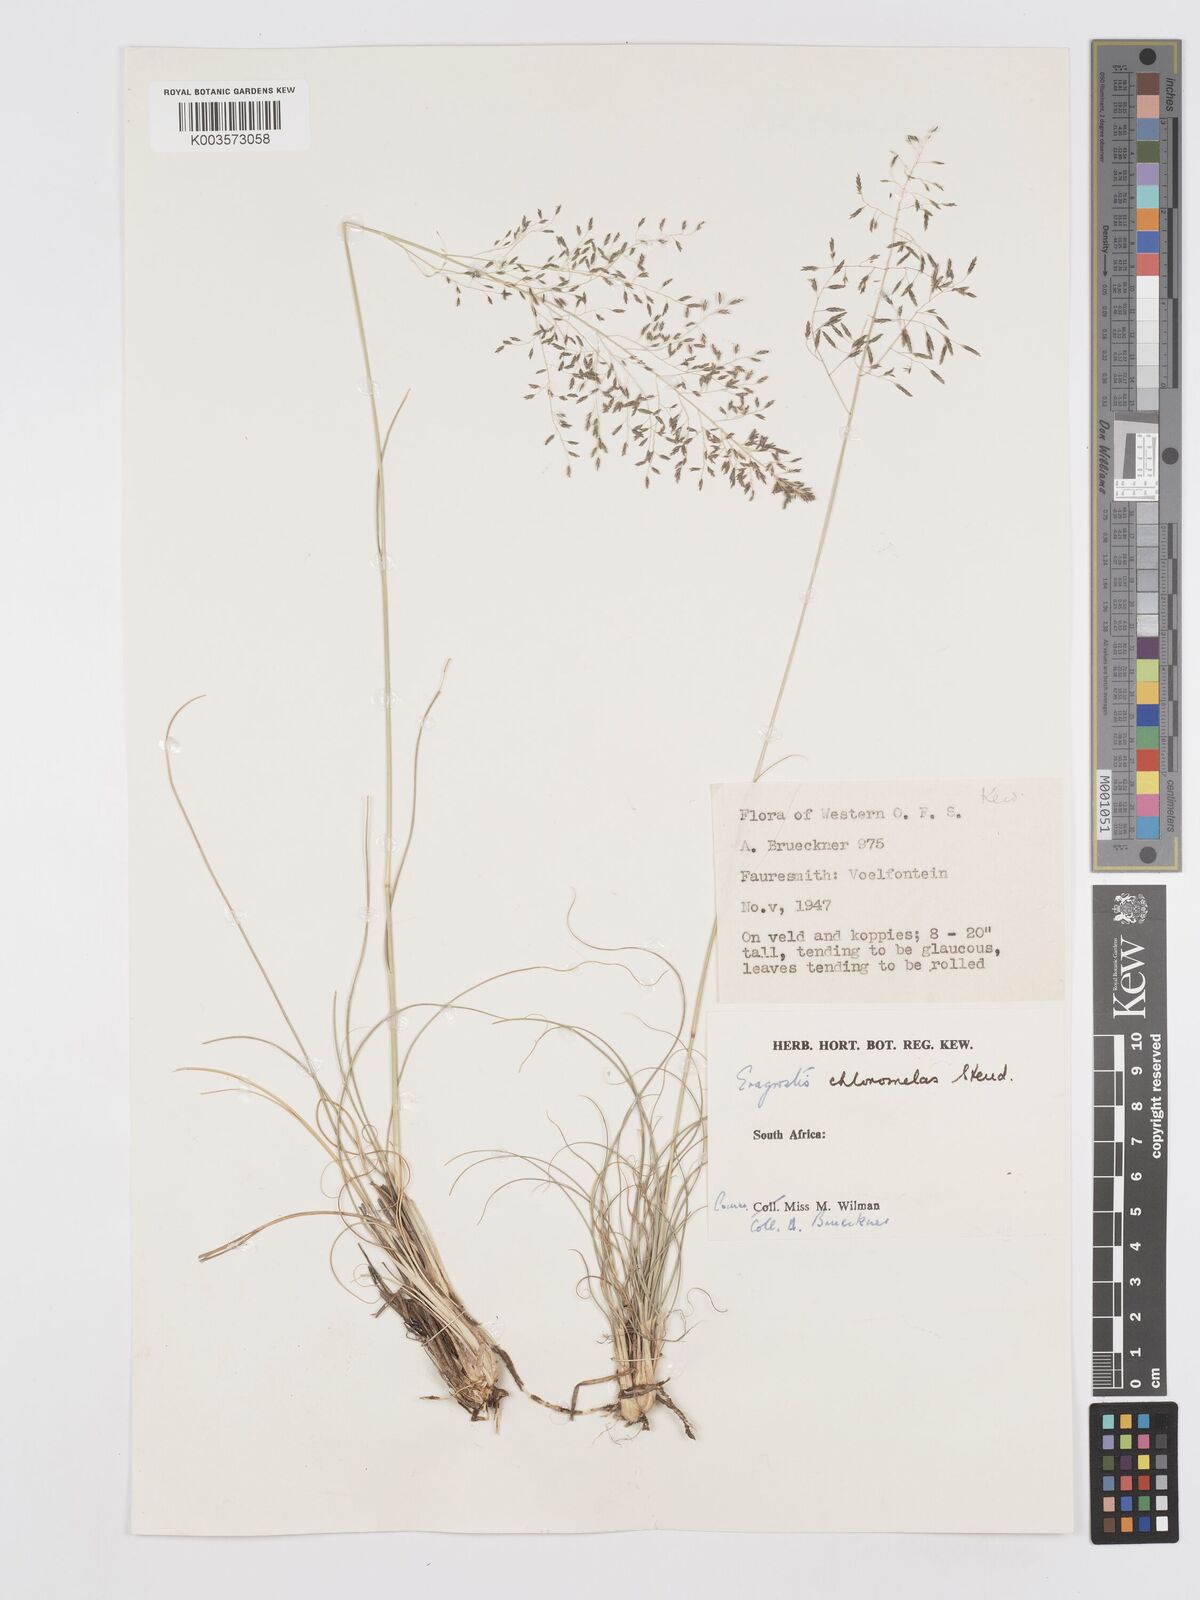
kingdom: Plantae
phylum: Tracheophyta
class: Liliopsida
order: Poales
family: Poaceae
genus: Eragrostis
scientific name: Eragrostis curvula
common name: African love-grass
